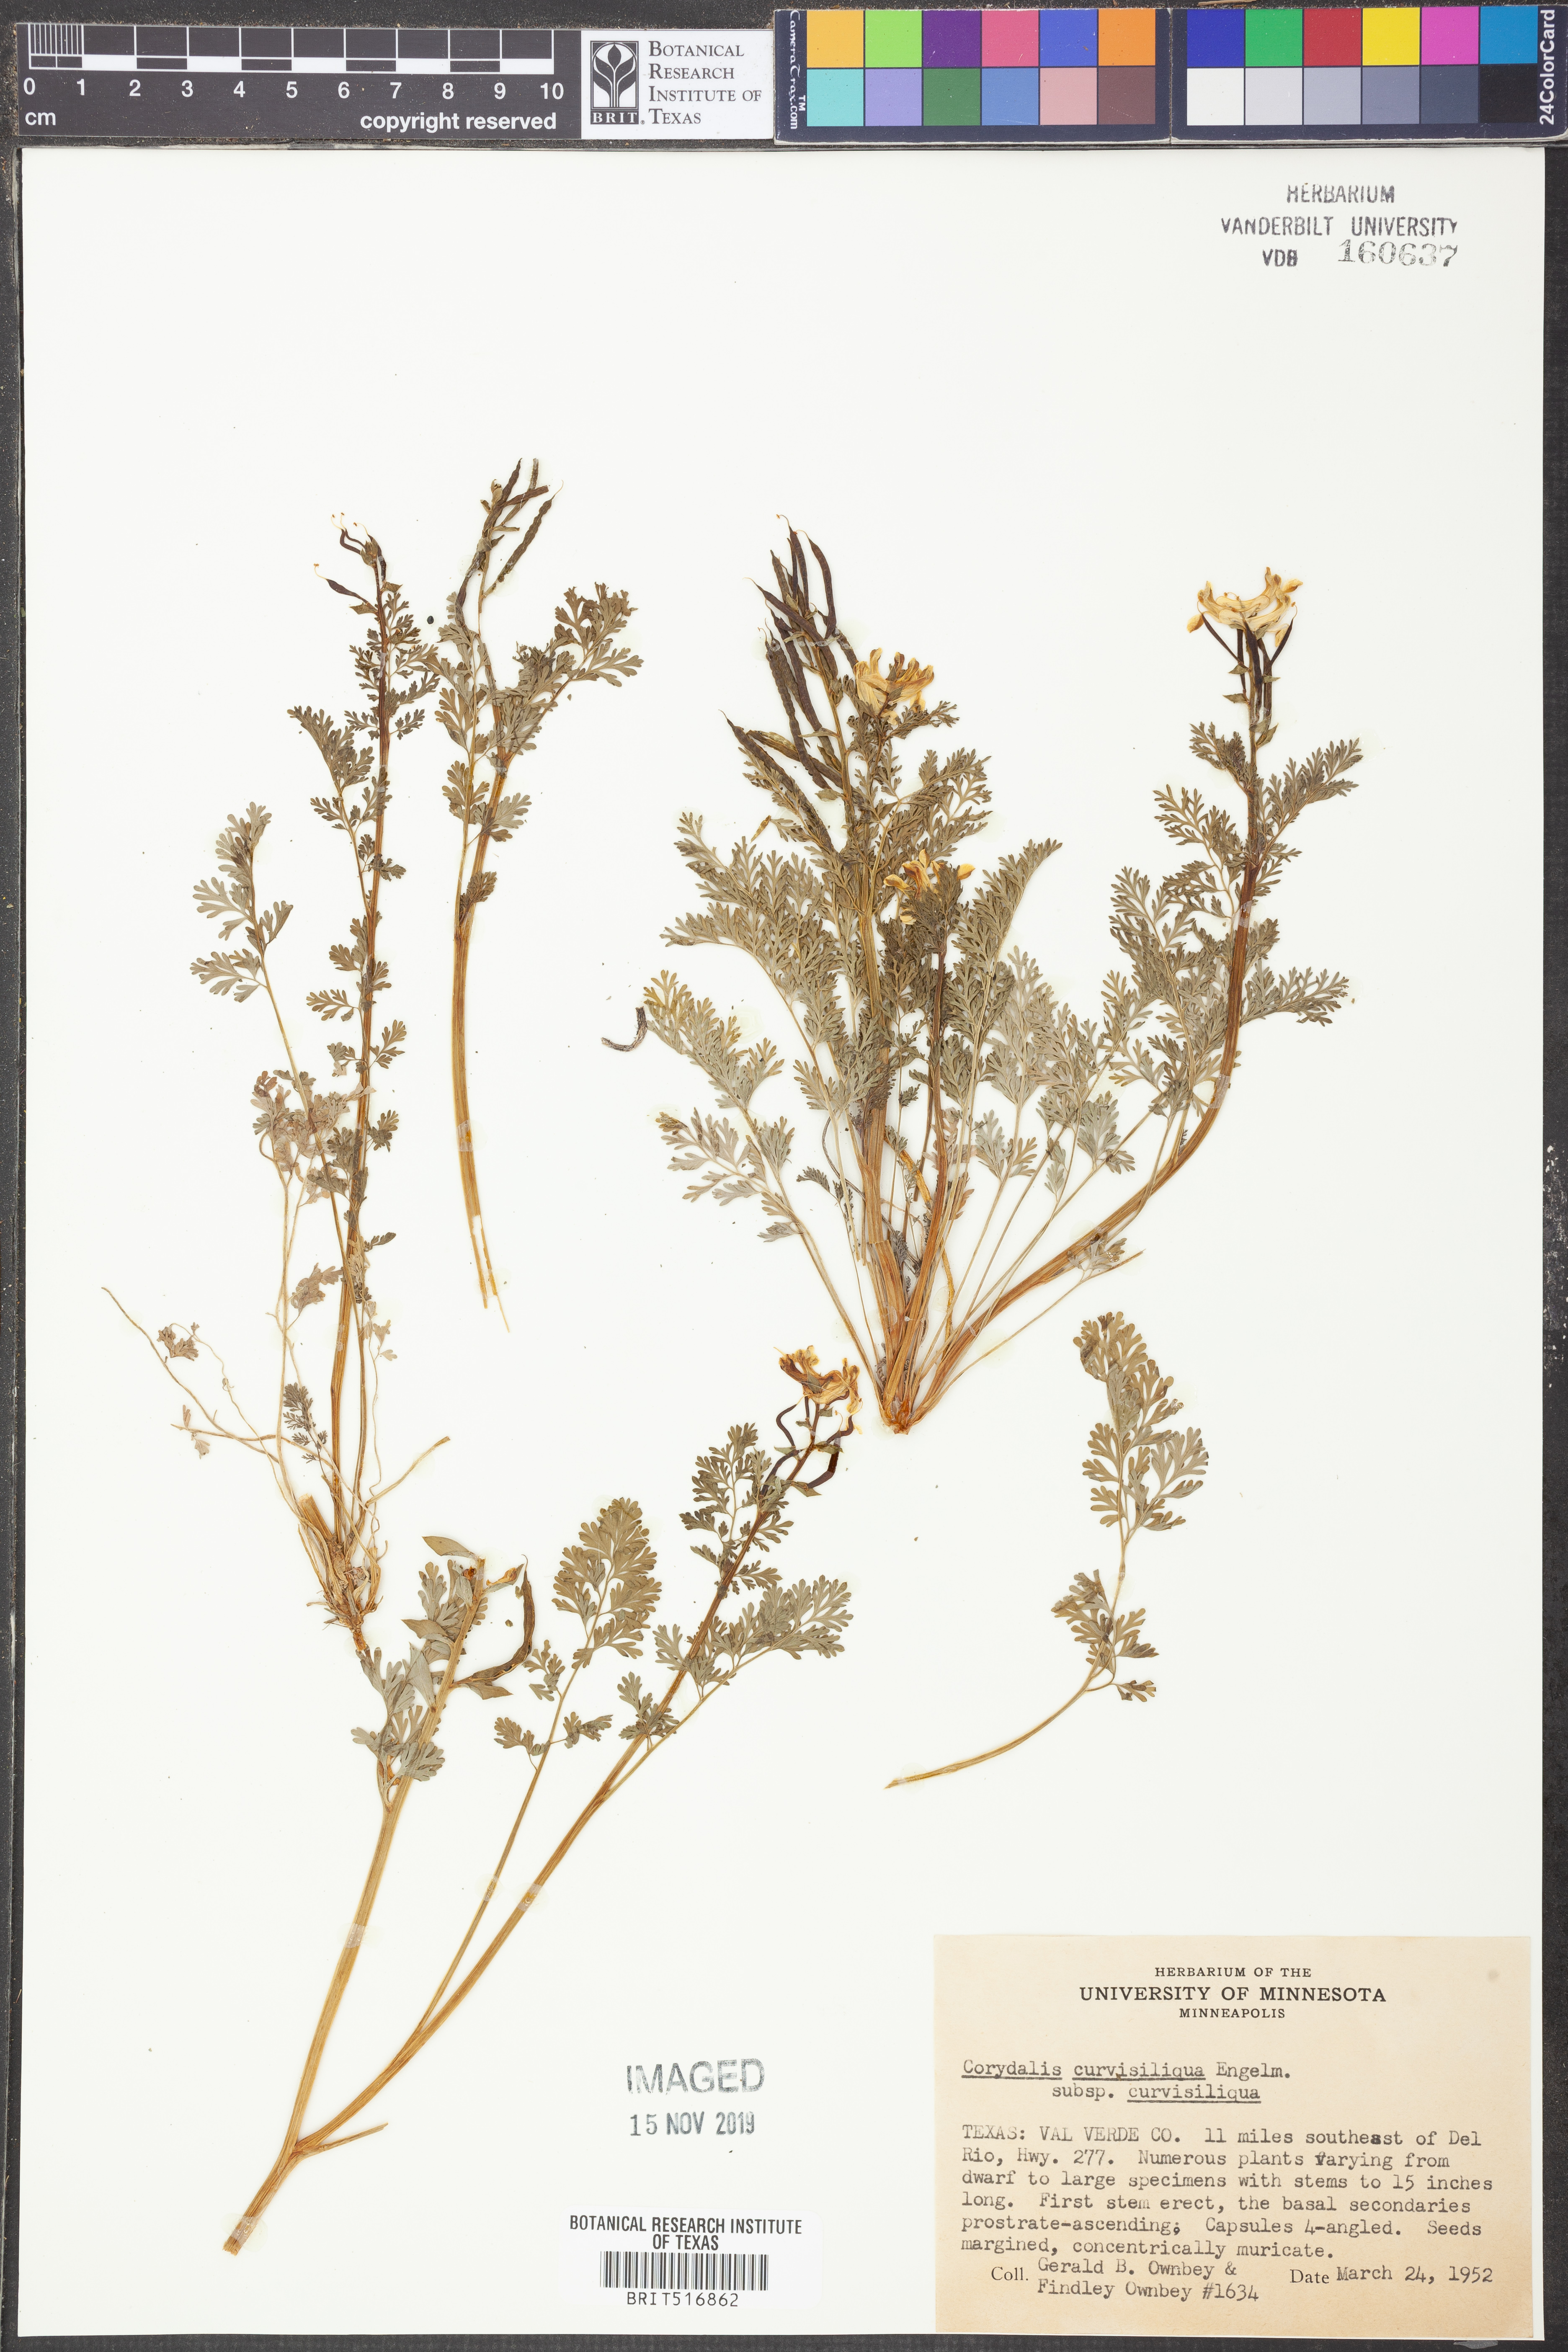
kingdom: Plantae
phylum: Tracheophyta
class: Magnoliopsida
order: Ranunculales
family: Papaveraceae
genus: Corydalis
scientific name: Corydalis curvisiliqua
